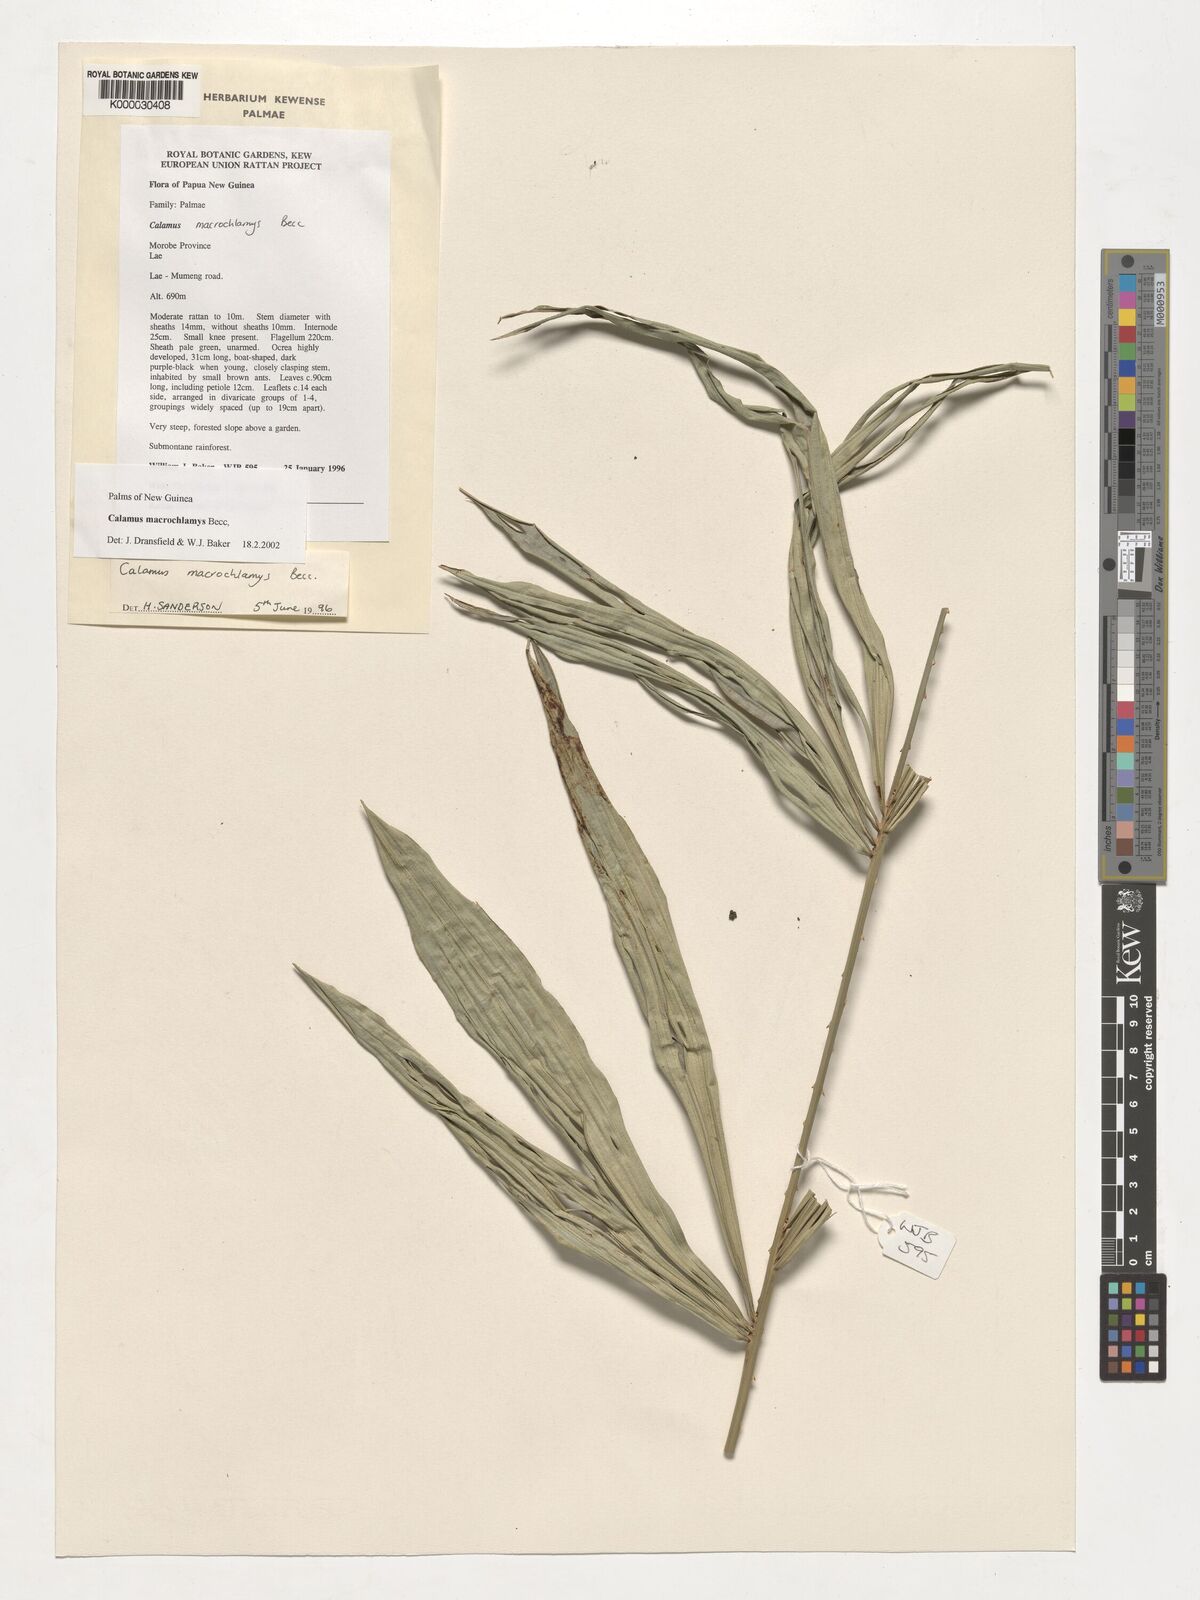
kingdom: Plantae
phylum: Tracheophyta
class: Liliopsida
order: Arecales
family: Arecaceae
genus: Calamus
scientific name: Calamus macrochlamys
